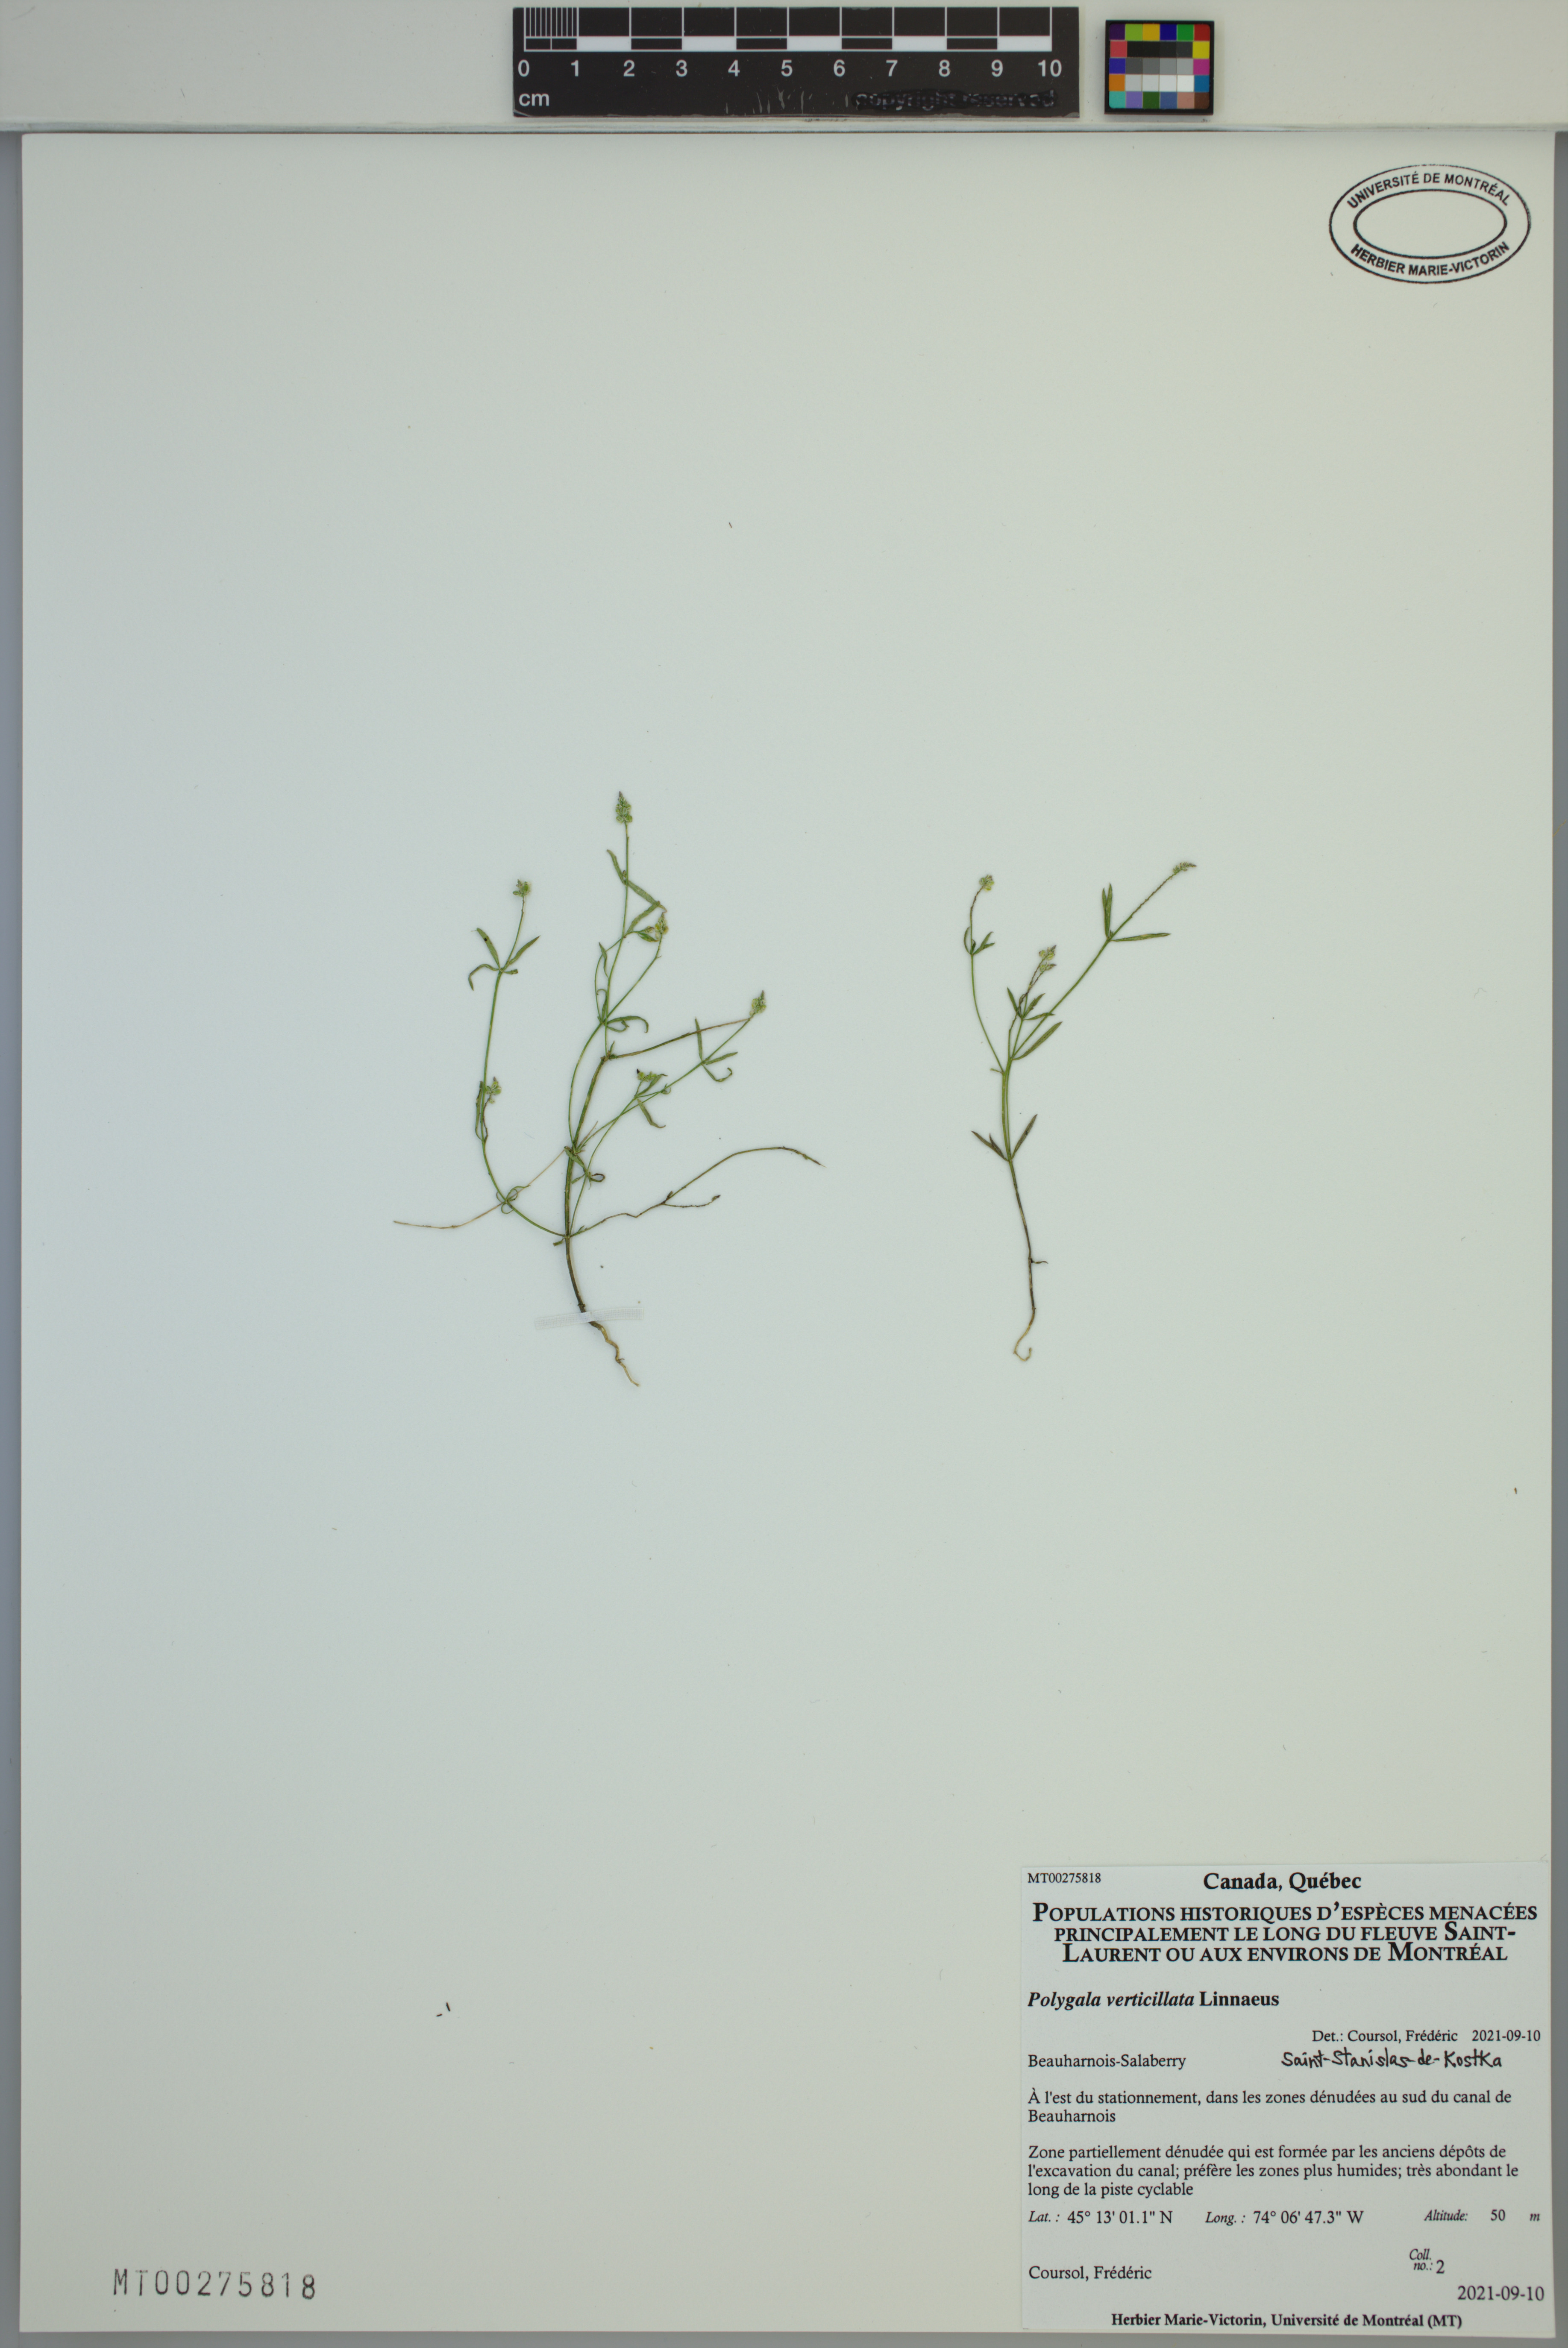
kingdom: Plantae
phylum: Tracheophyta
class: Magnoliopsida
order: Fabales
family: Polygalaceae
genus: Polygala
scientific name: Polygala verticillata
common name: Whorl milkwort
